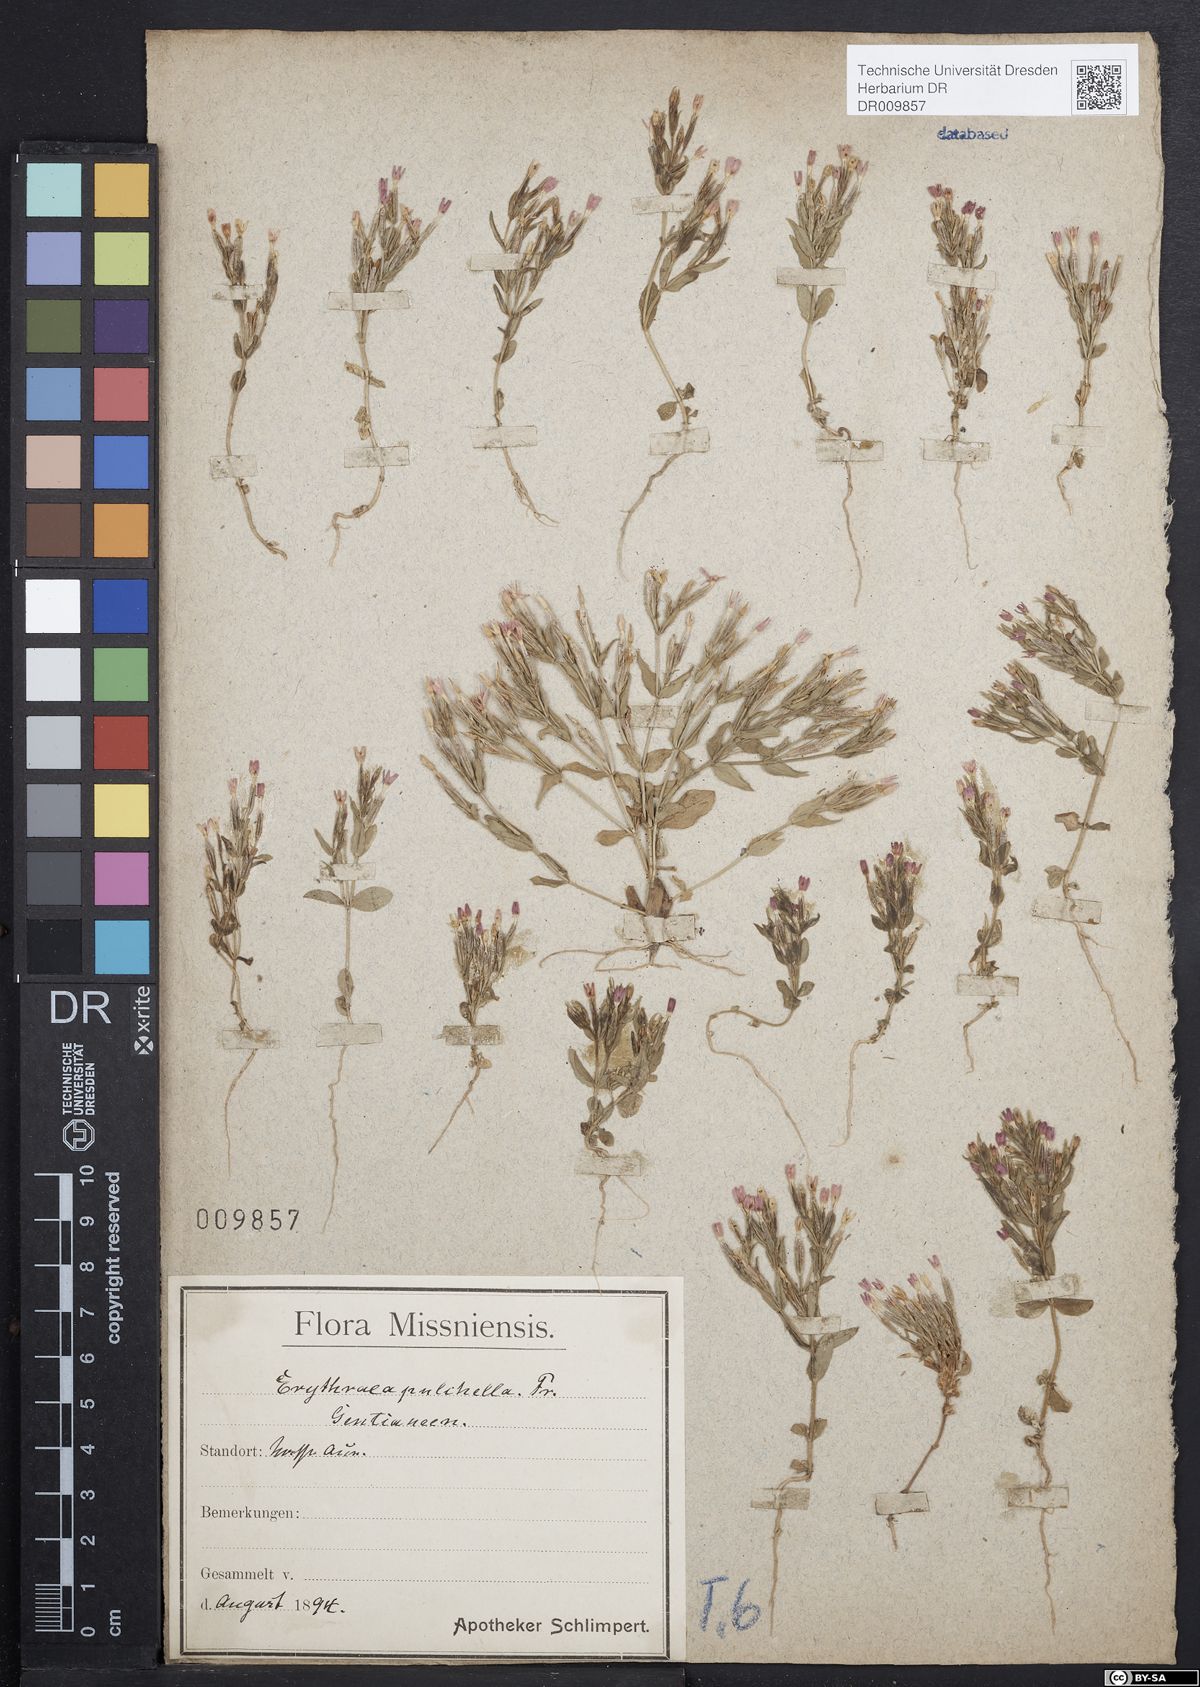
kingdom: Plantae
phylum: Tracheophyta
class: Magnoliopsida
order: Gentianales
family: Gentianaceae
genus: Centaurium
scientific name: Centaurium pulchellum
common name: Lesser centaury
